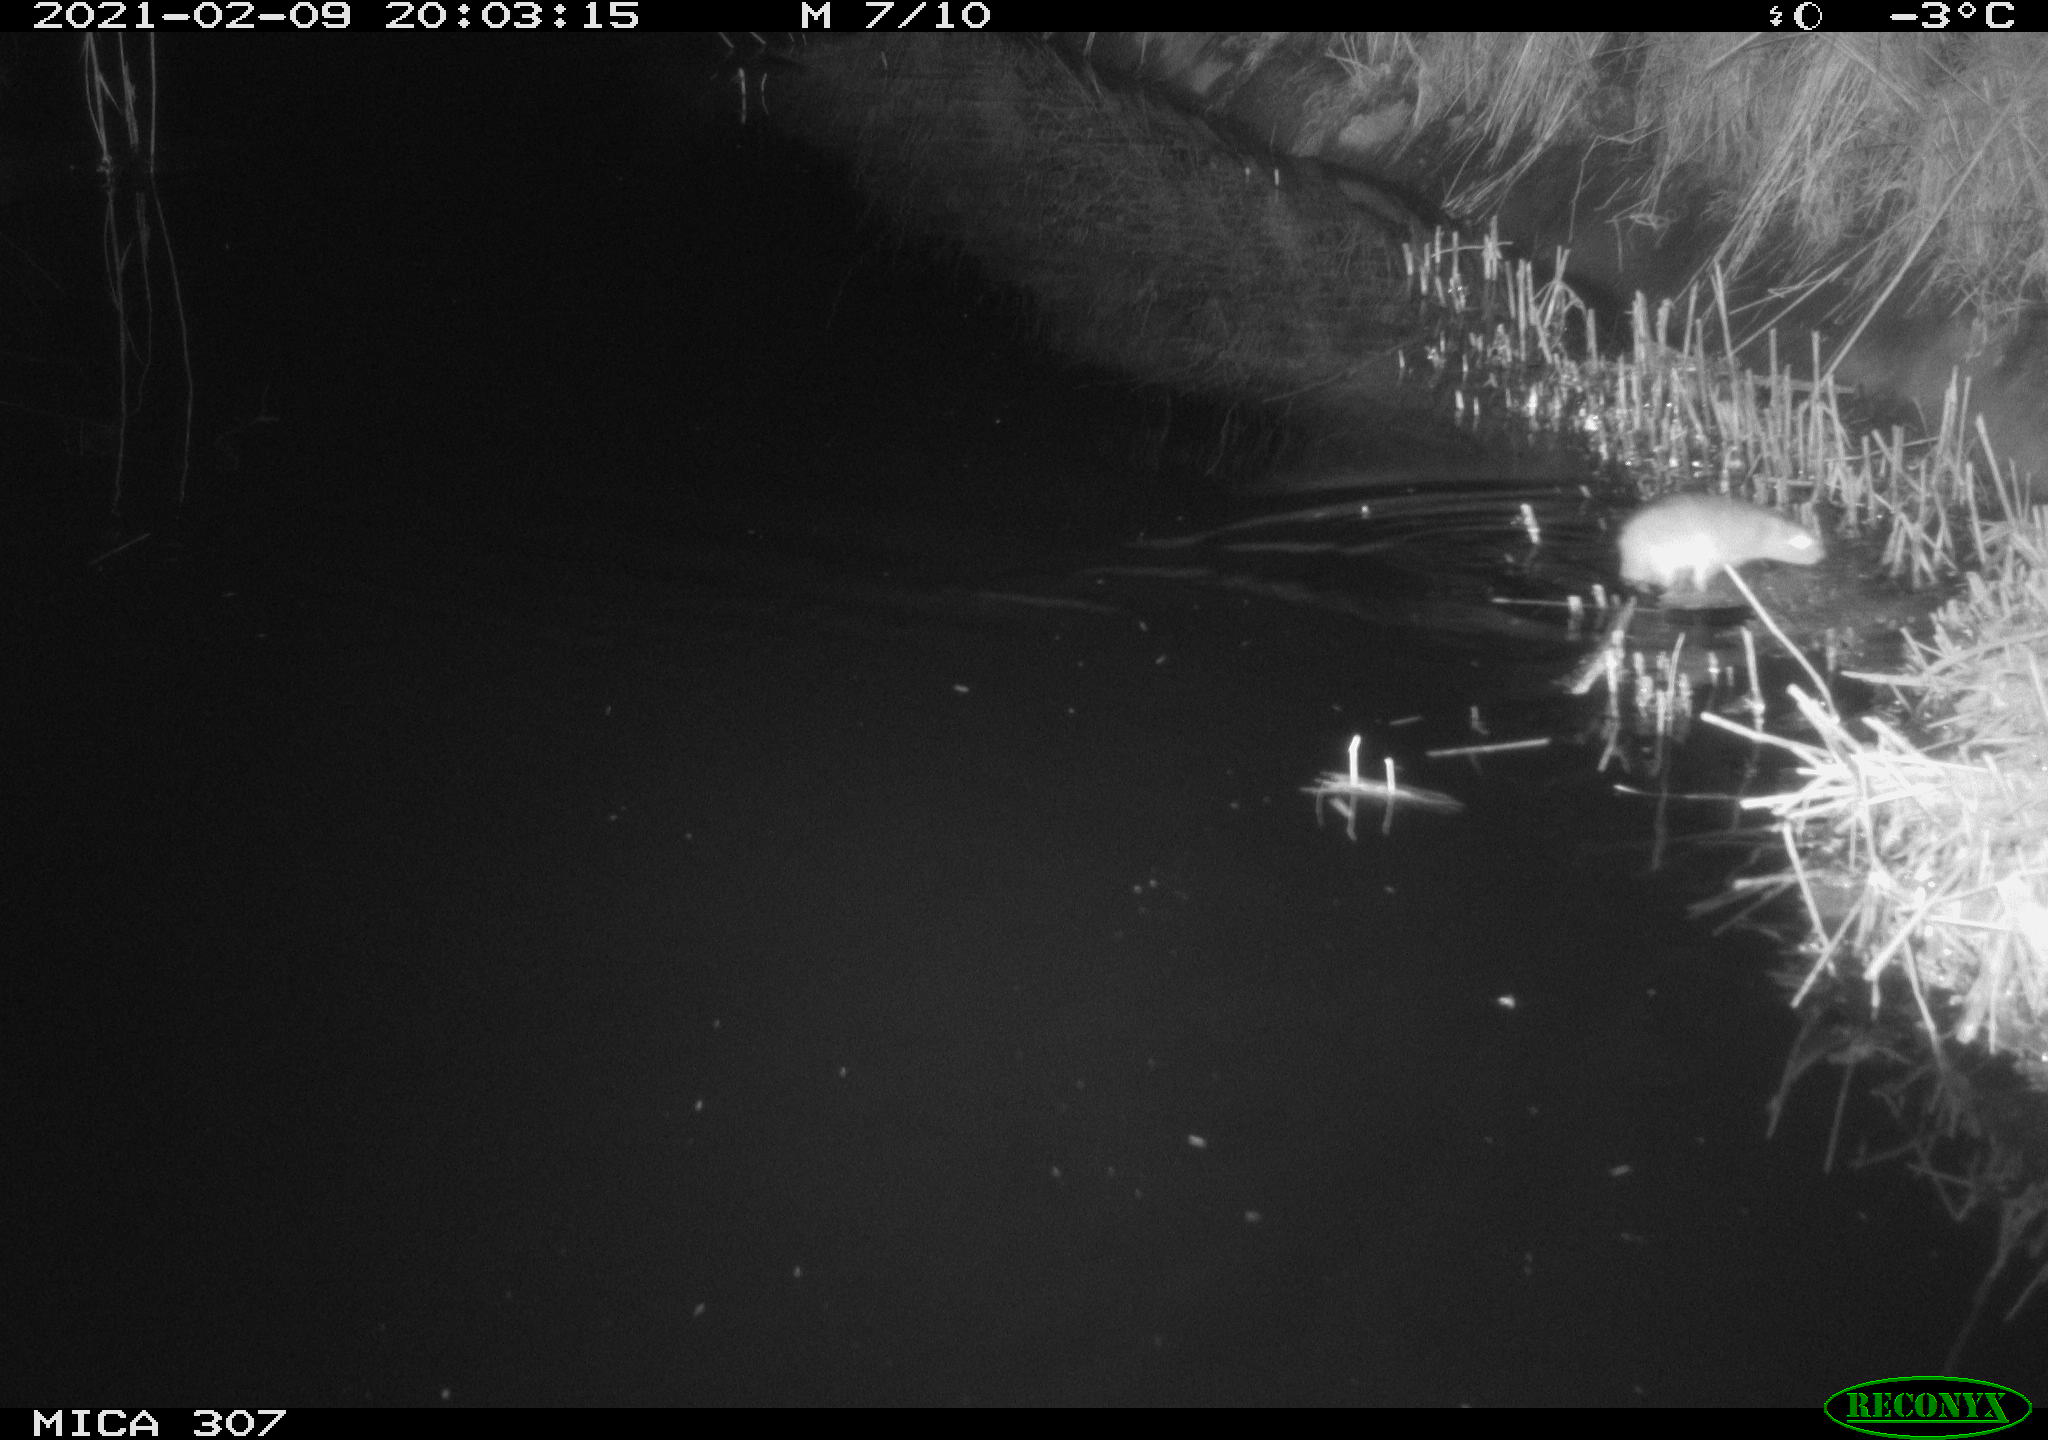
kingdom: Animalia
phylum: Chordata
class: Mammalia
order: Rodentia
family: Muridae
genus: Rattus
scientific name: Rattus norvegicus
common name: Brown rat
